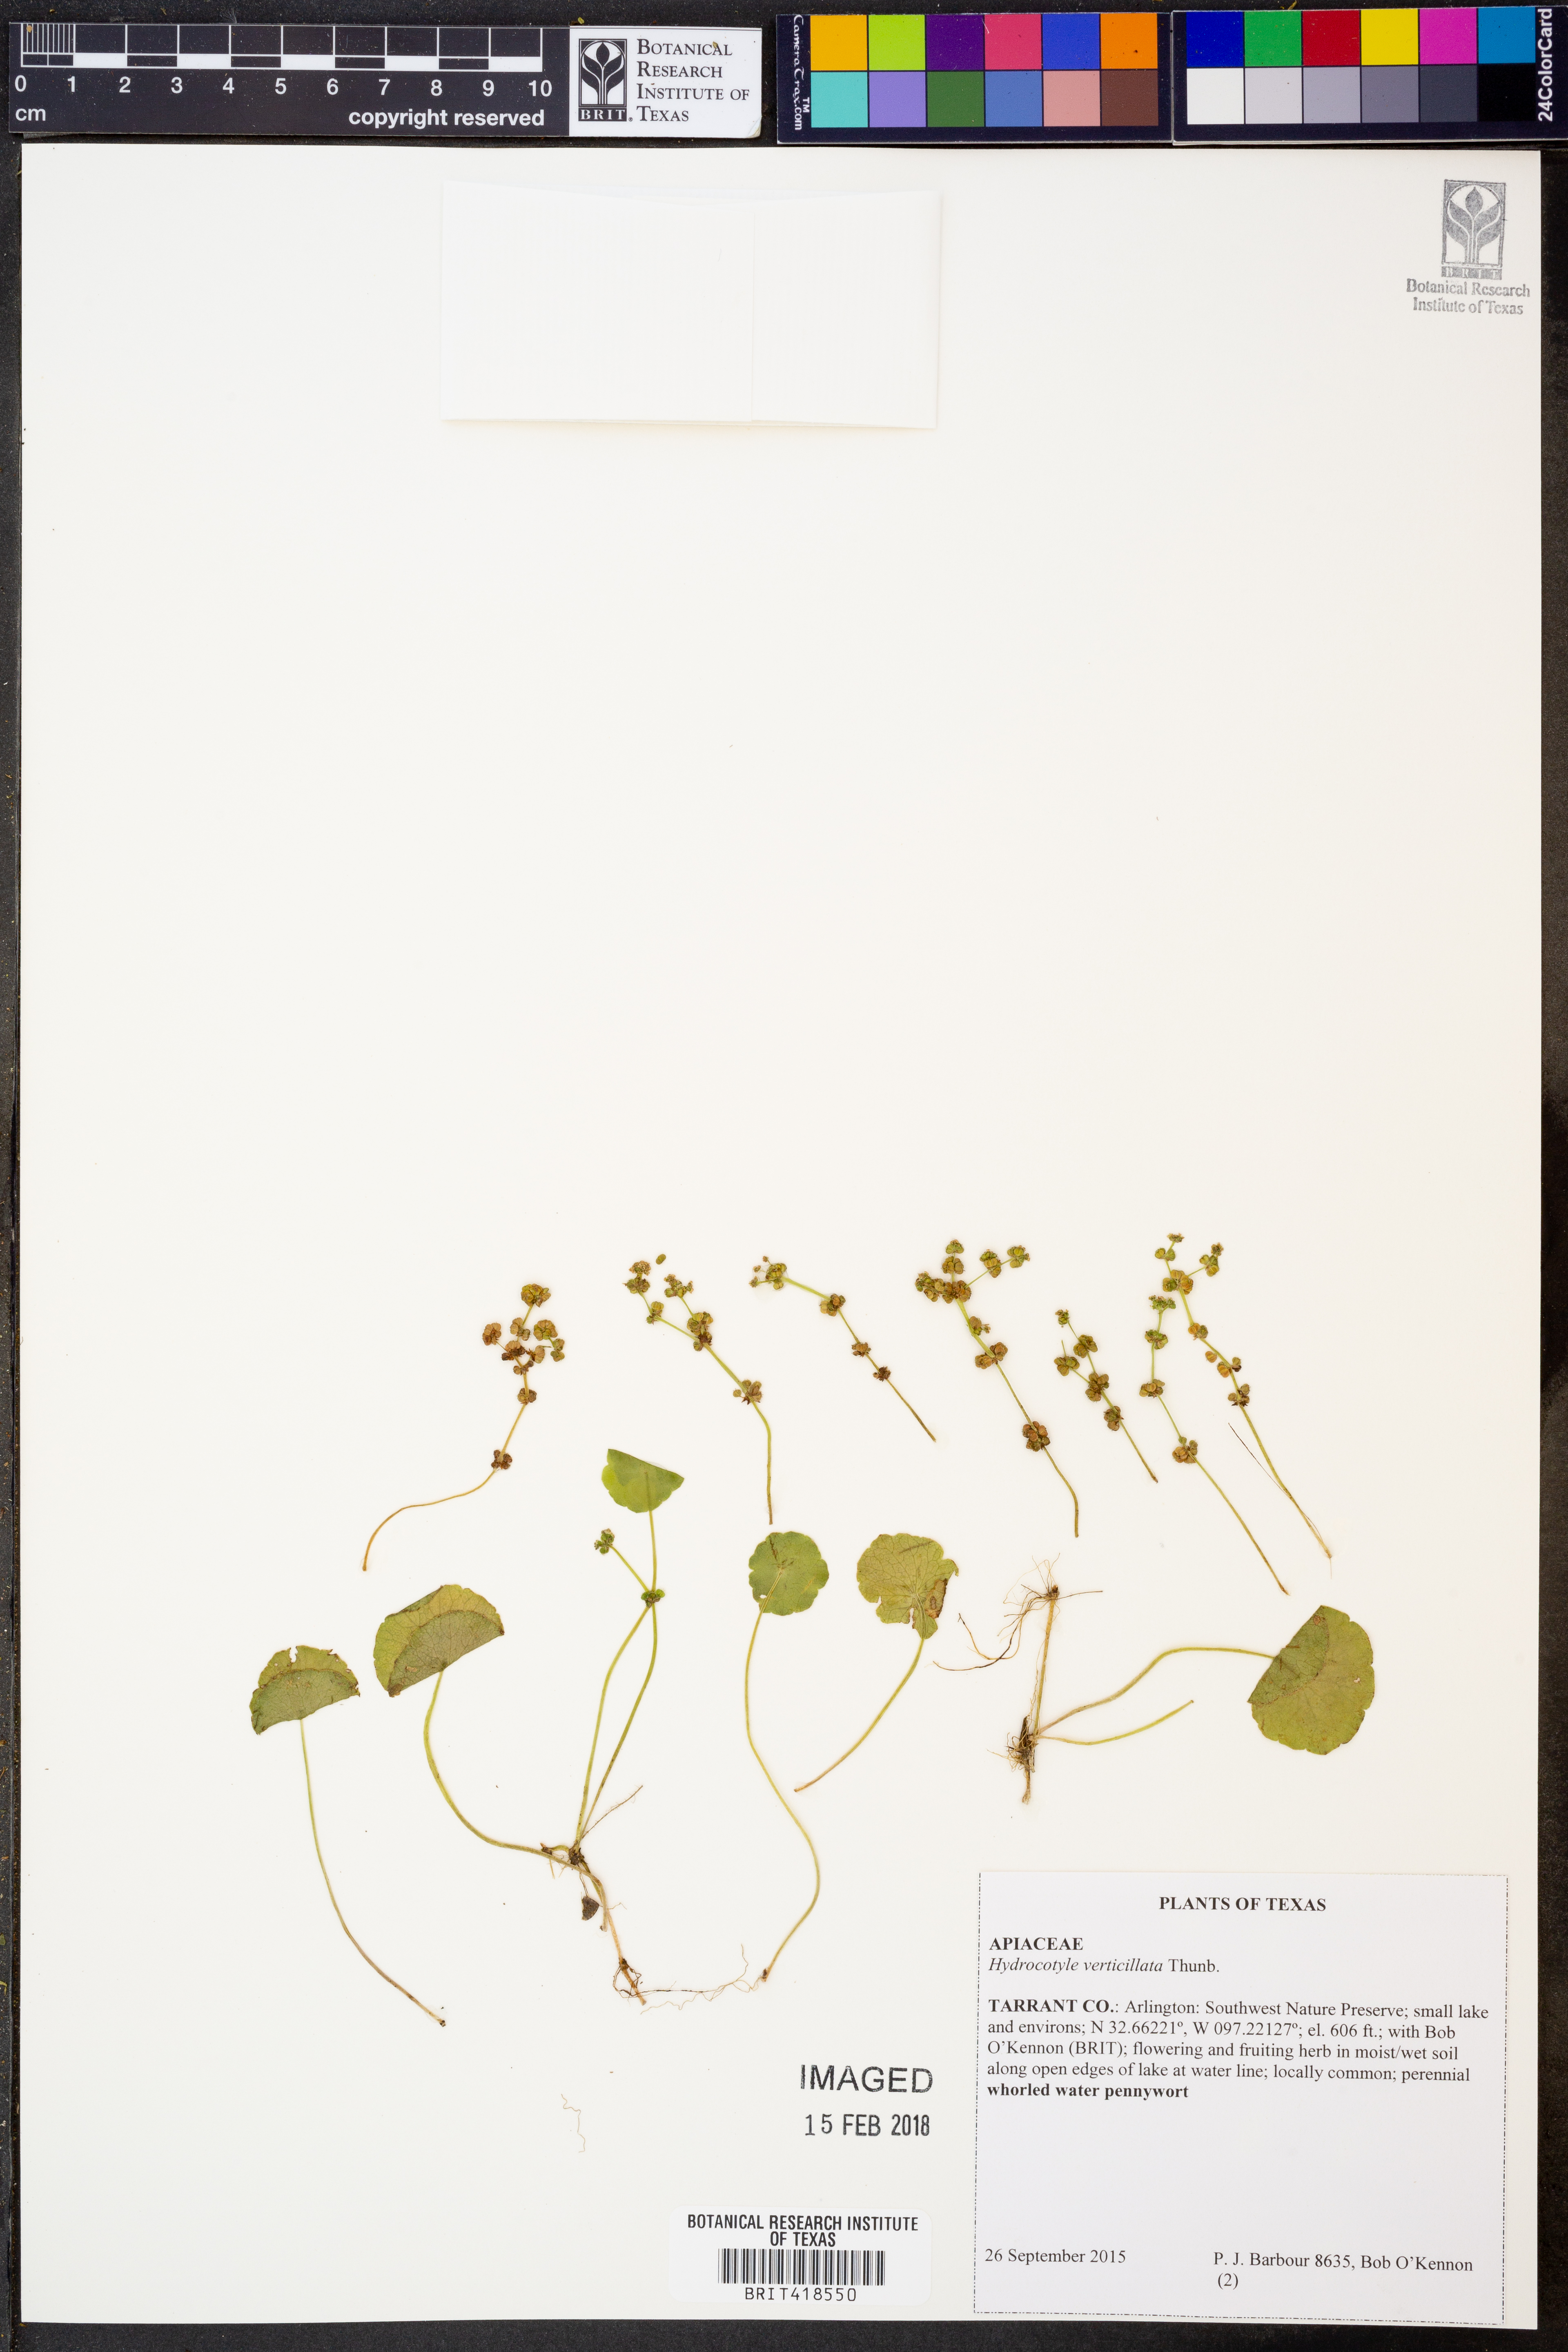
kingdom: Plantae
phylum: Tracheophyta
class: Magnoliopsida
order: Apiales
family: Araliaceae
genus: Hydrocotyle
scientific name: Hydrocotyle verticillata
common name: Whorled marshpennywort
